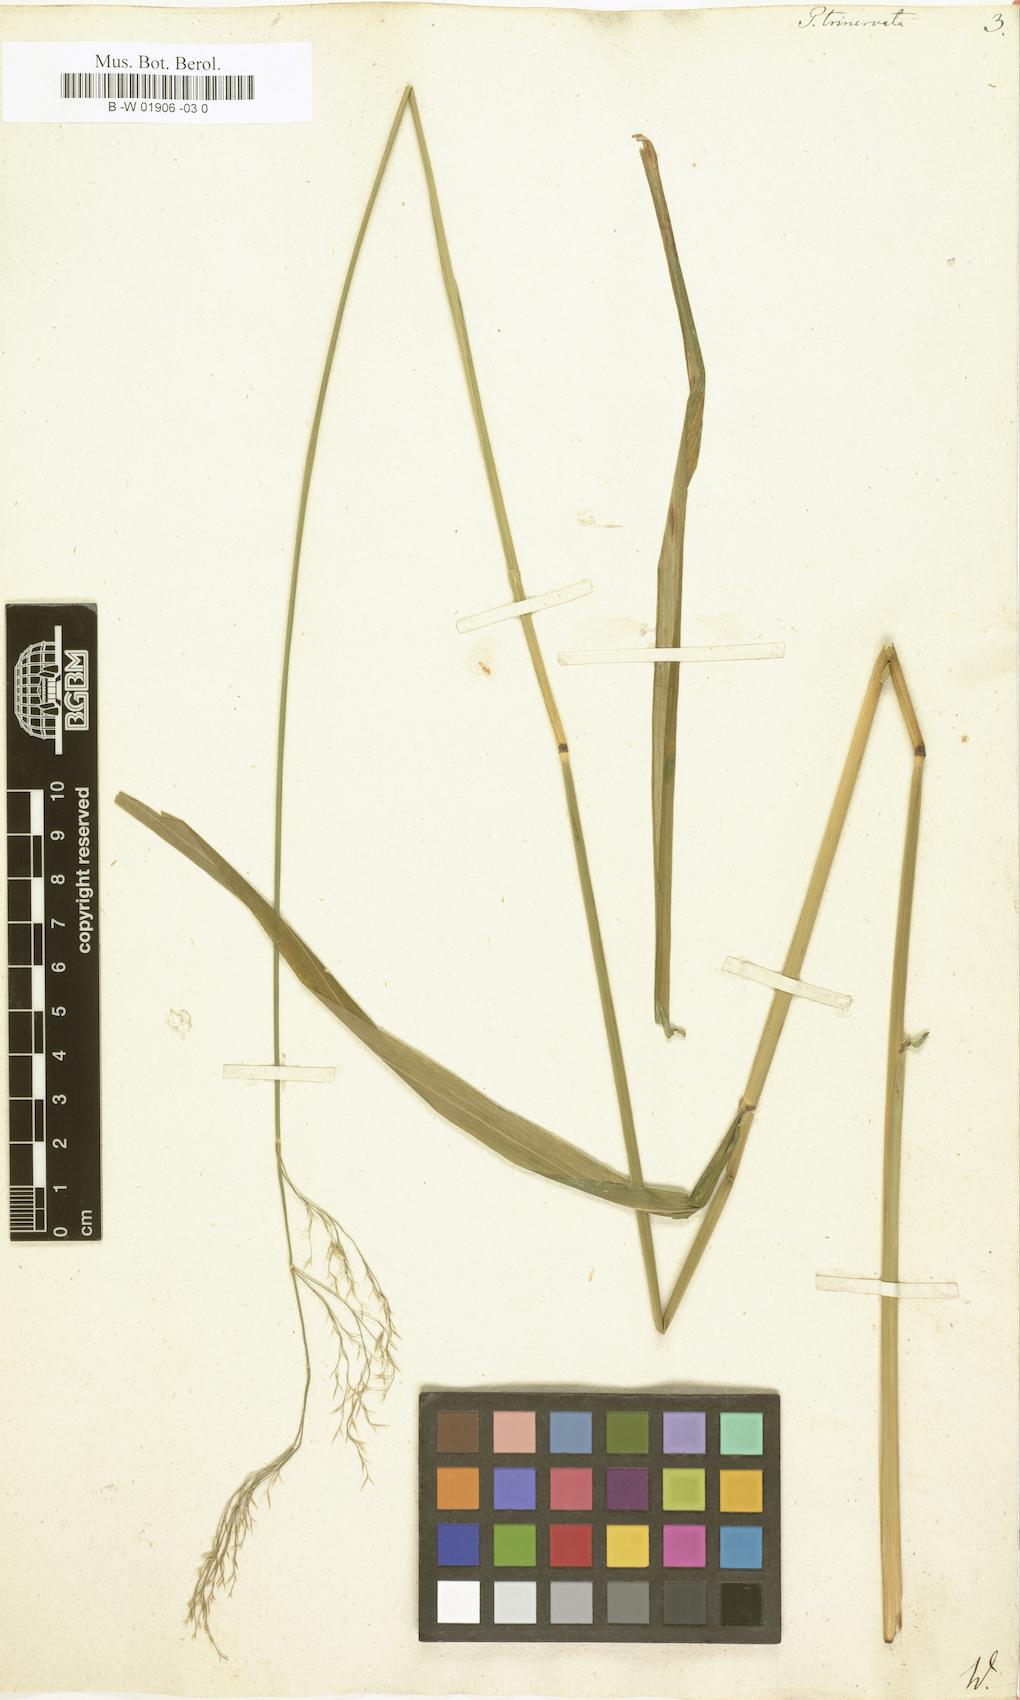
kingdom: Plantae
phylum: Tracheophyta
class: Liliopsida
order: Poales
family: Poaceae
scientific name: Poaceae
